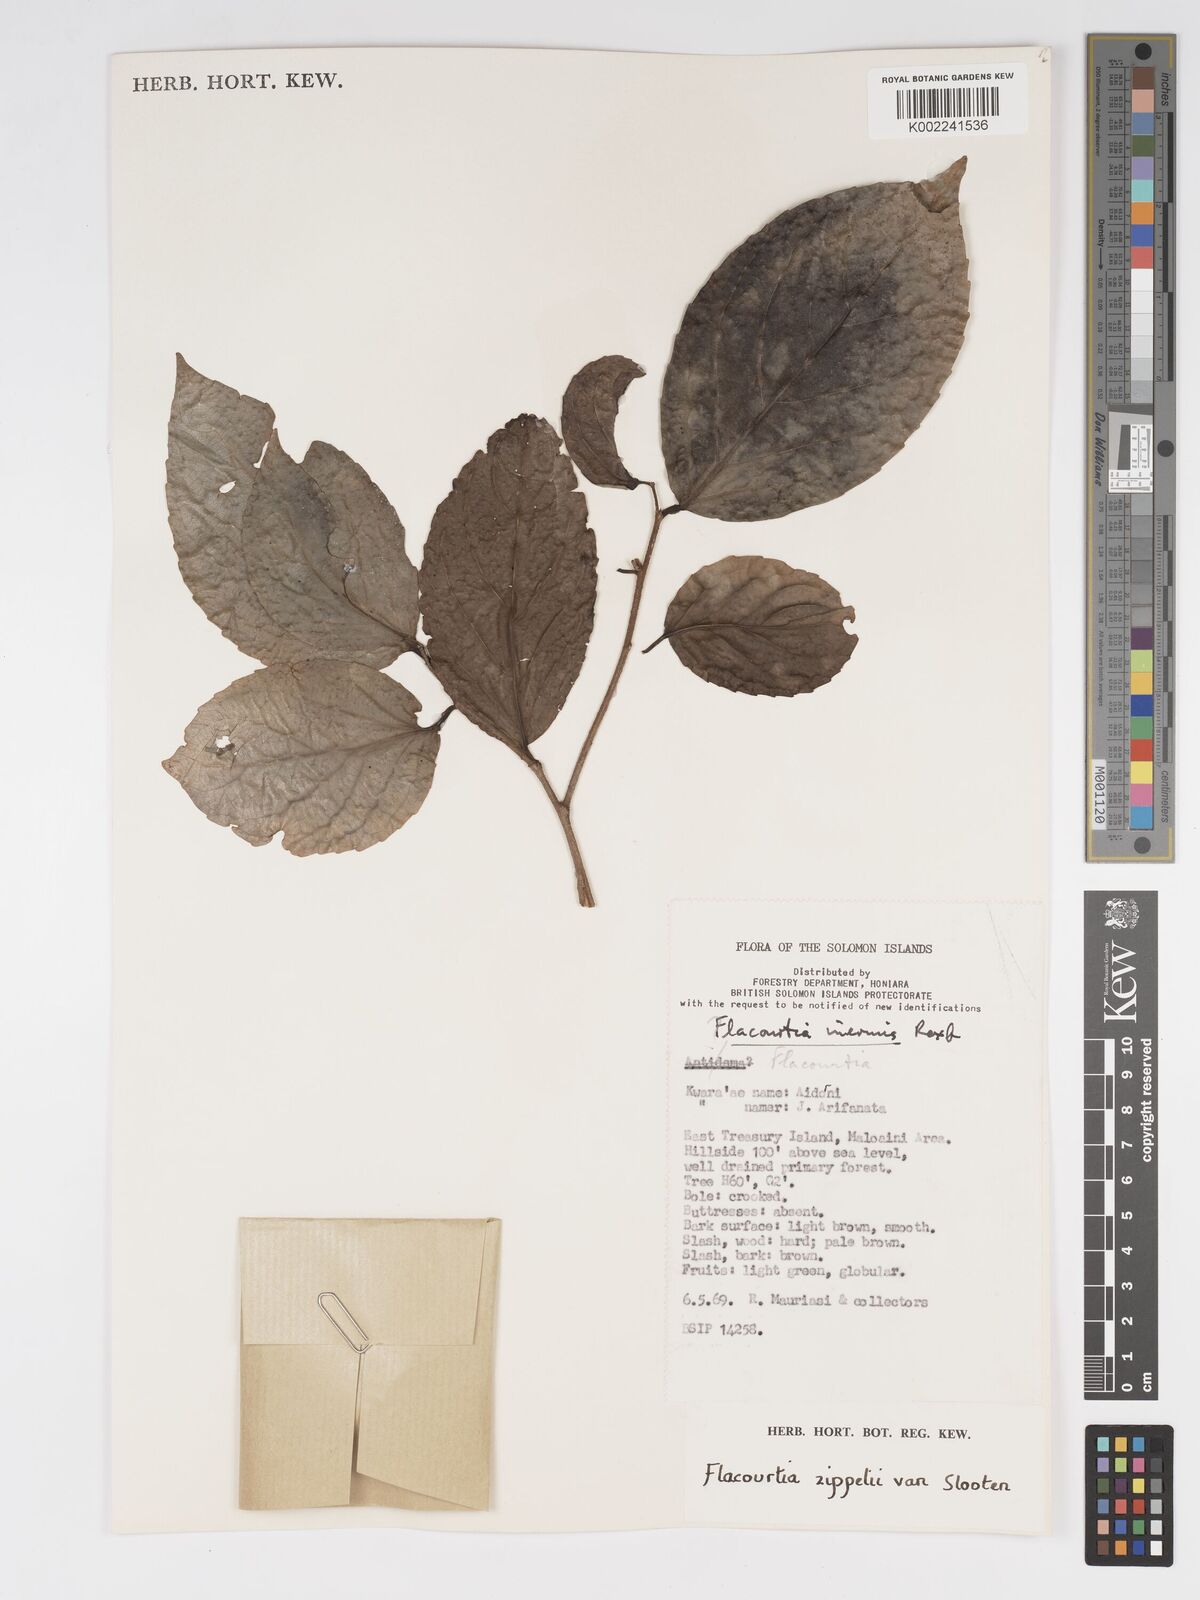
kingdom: Plantae
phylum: Tracheophyta
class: Magnoliopsida
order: Malpighiales
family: Salicaceae
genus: Flacourtia
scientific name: Flacourtia zippelii
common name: Zippeli plum
